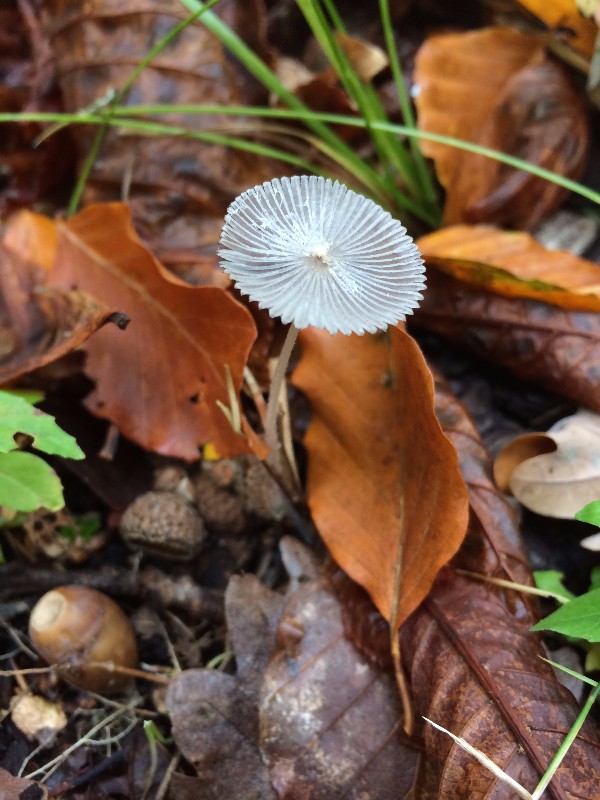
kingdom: Fungi
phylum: Basidiomycota
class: Agaricomycetes
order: Agaricales
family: Psathyrellaceae
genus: Coprinopsis
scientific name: Coprinopsis
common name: blækhat
